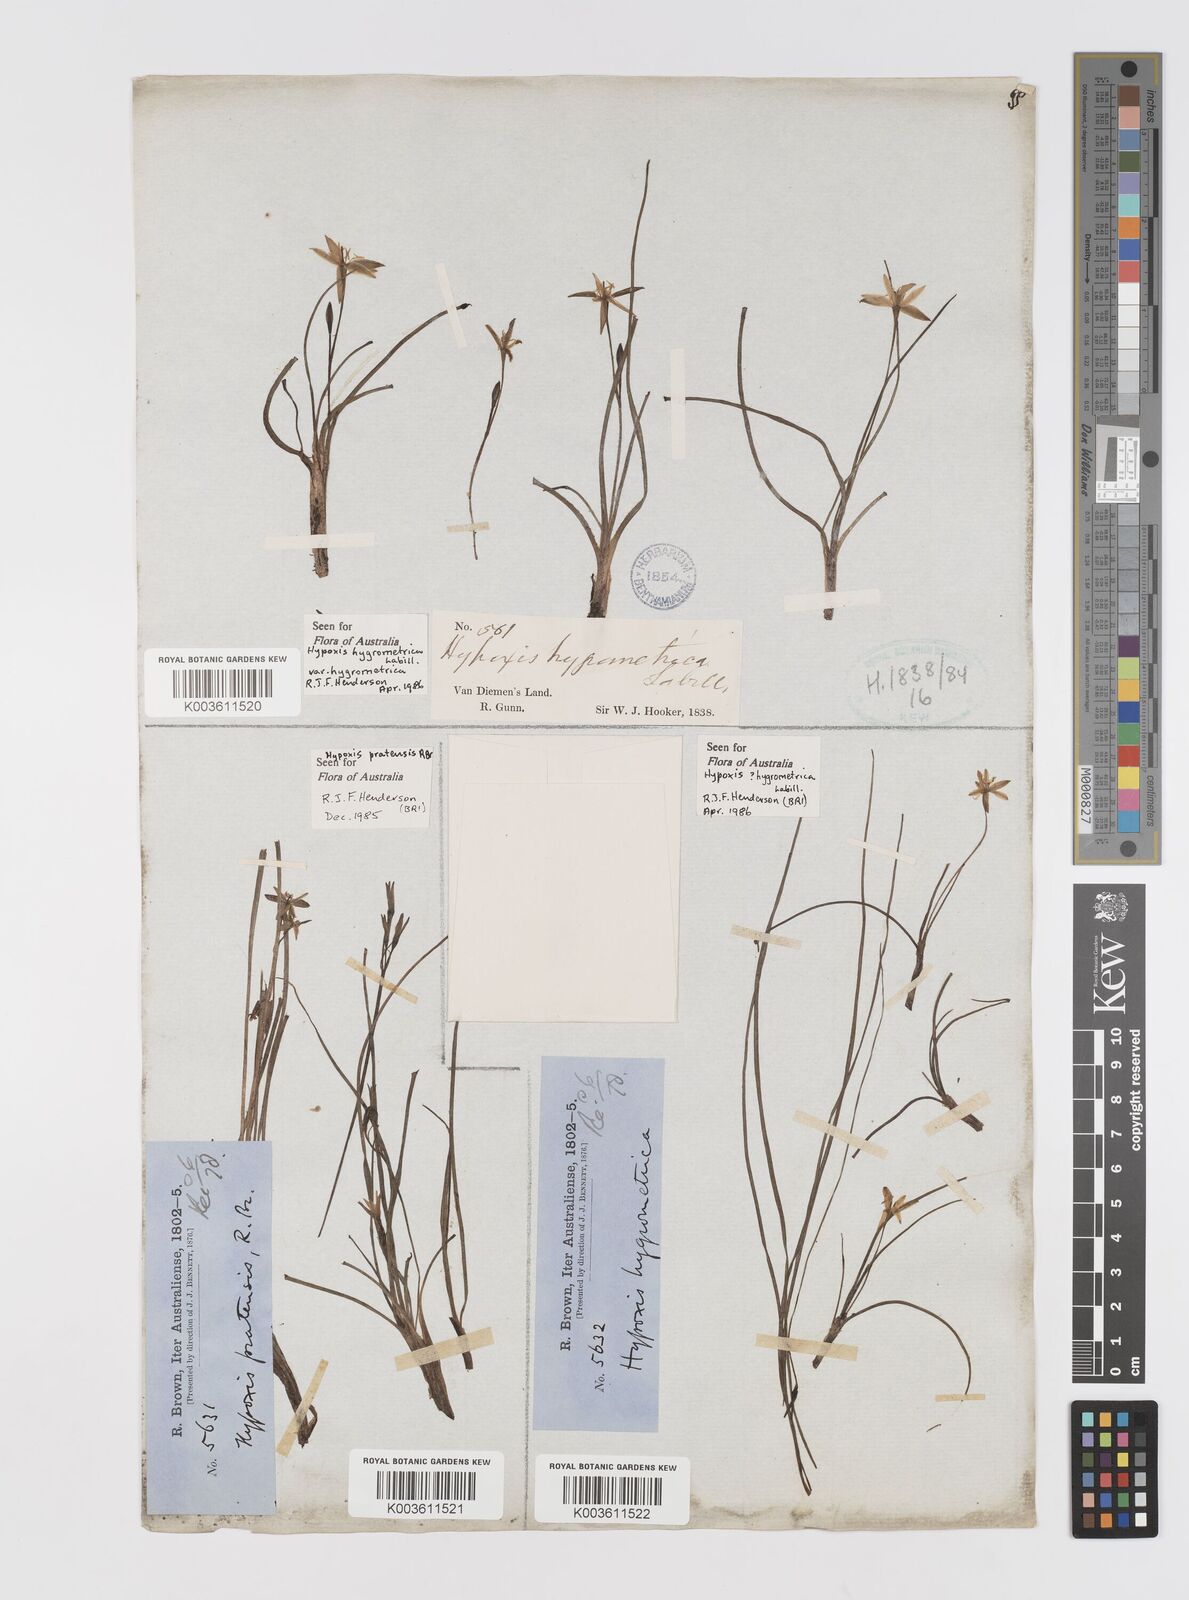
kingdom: Plantae
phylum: Tracheophyta
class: Liliopsida
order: Asparagales
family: Hypoxidaceae
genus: Hypoxis
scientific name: Hypoxis pratensis
